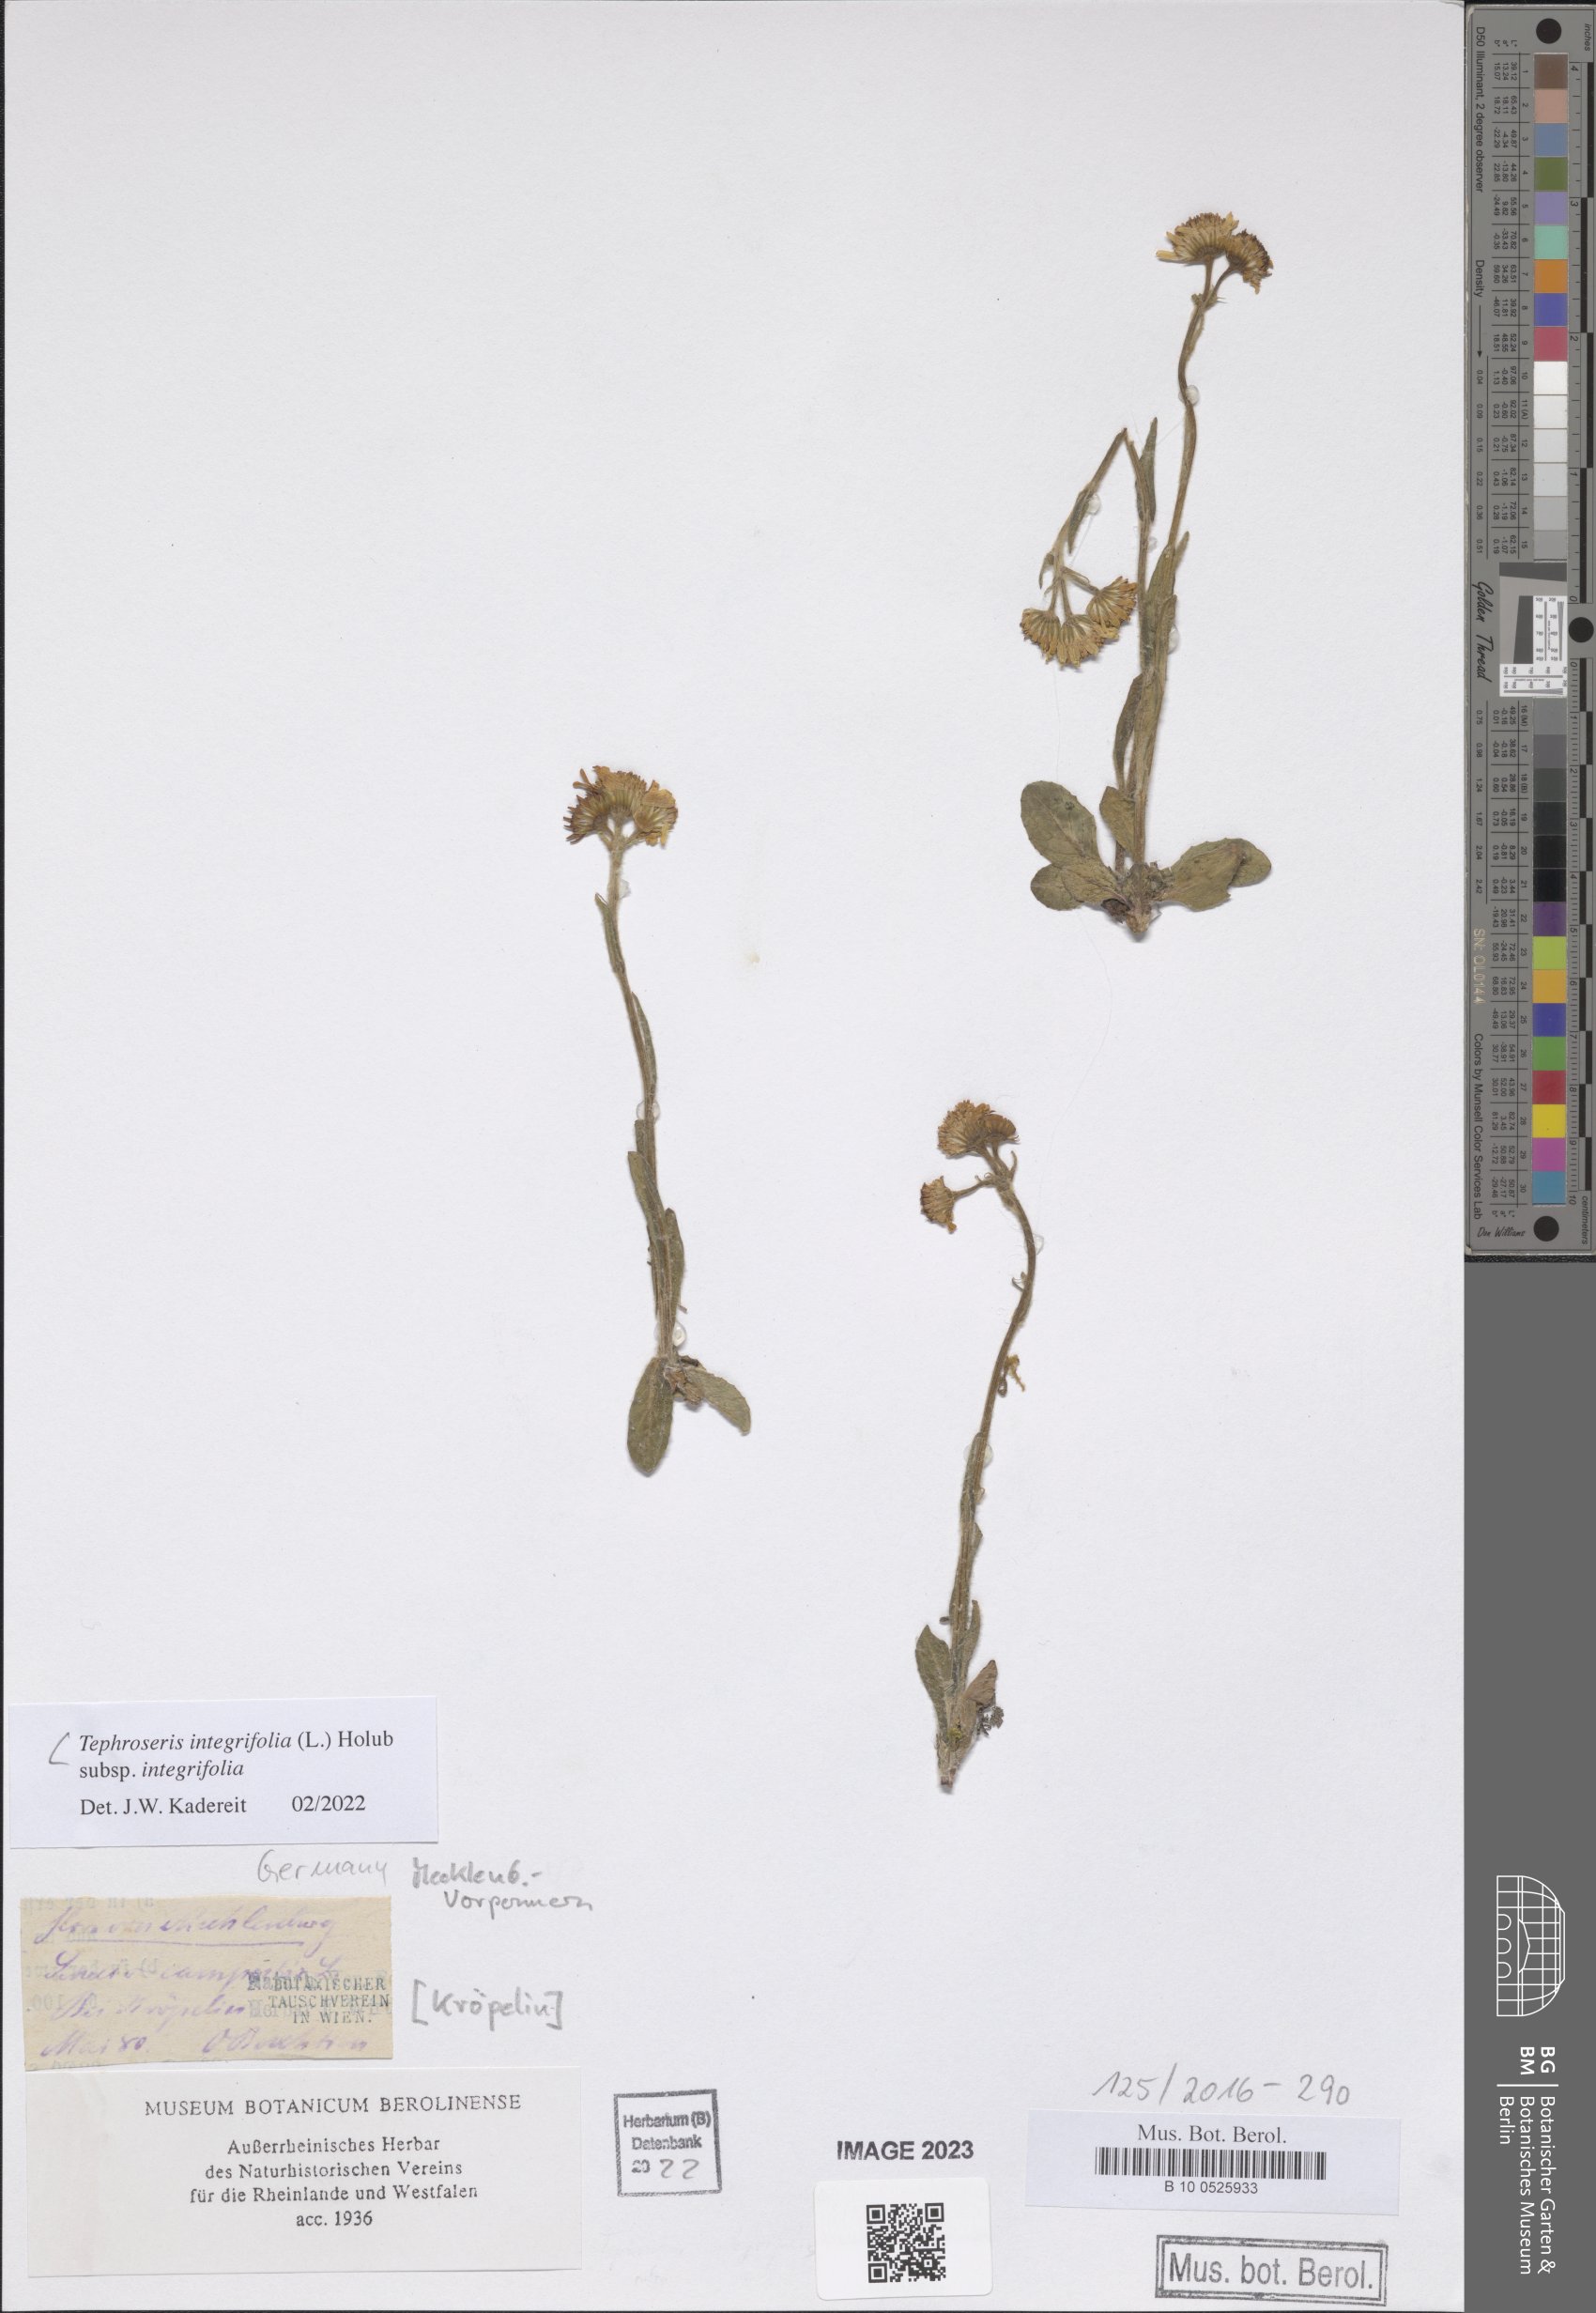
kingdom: Plantae
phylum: Tracheophyta
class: Magnoliopsida
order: Asterales
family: Asteraceae
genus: Tephroseris
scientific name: Tephroseris integrifolia
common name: Field fleawort
